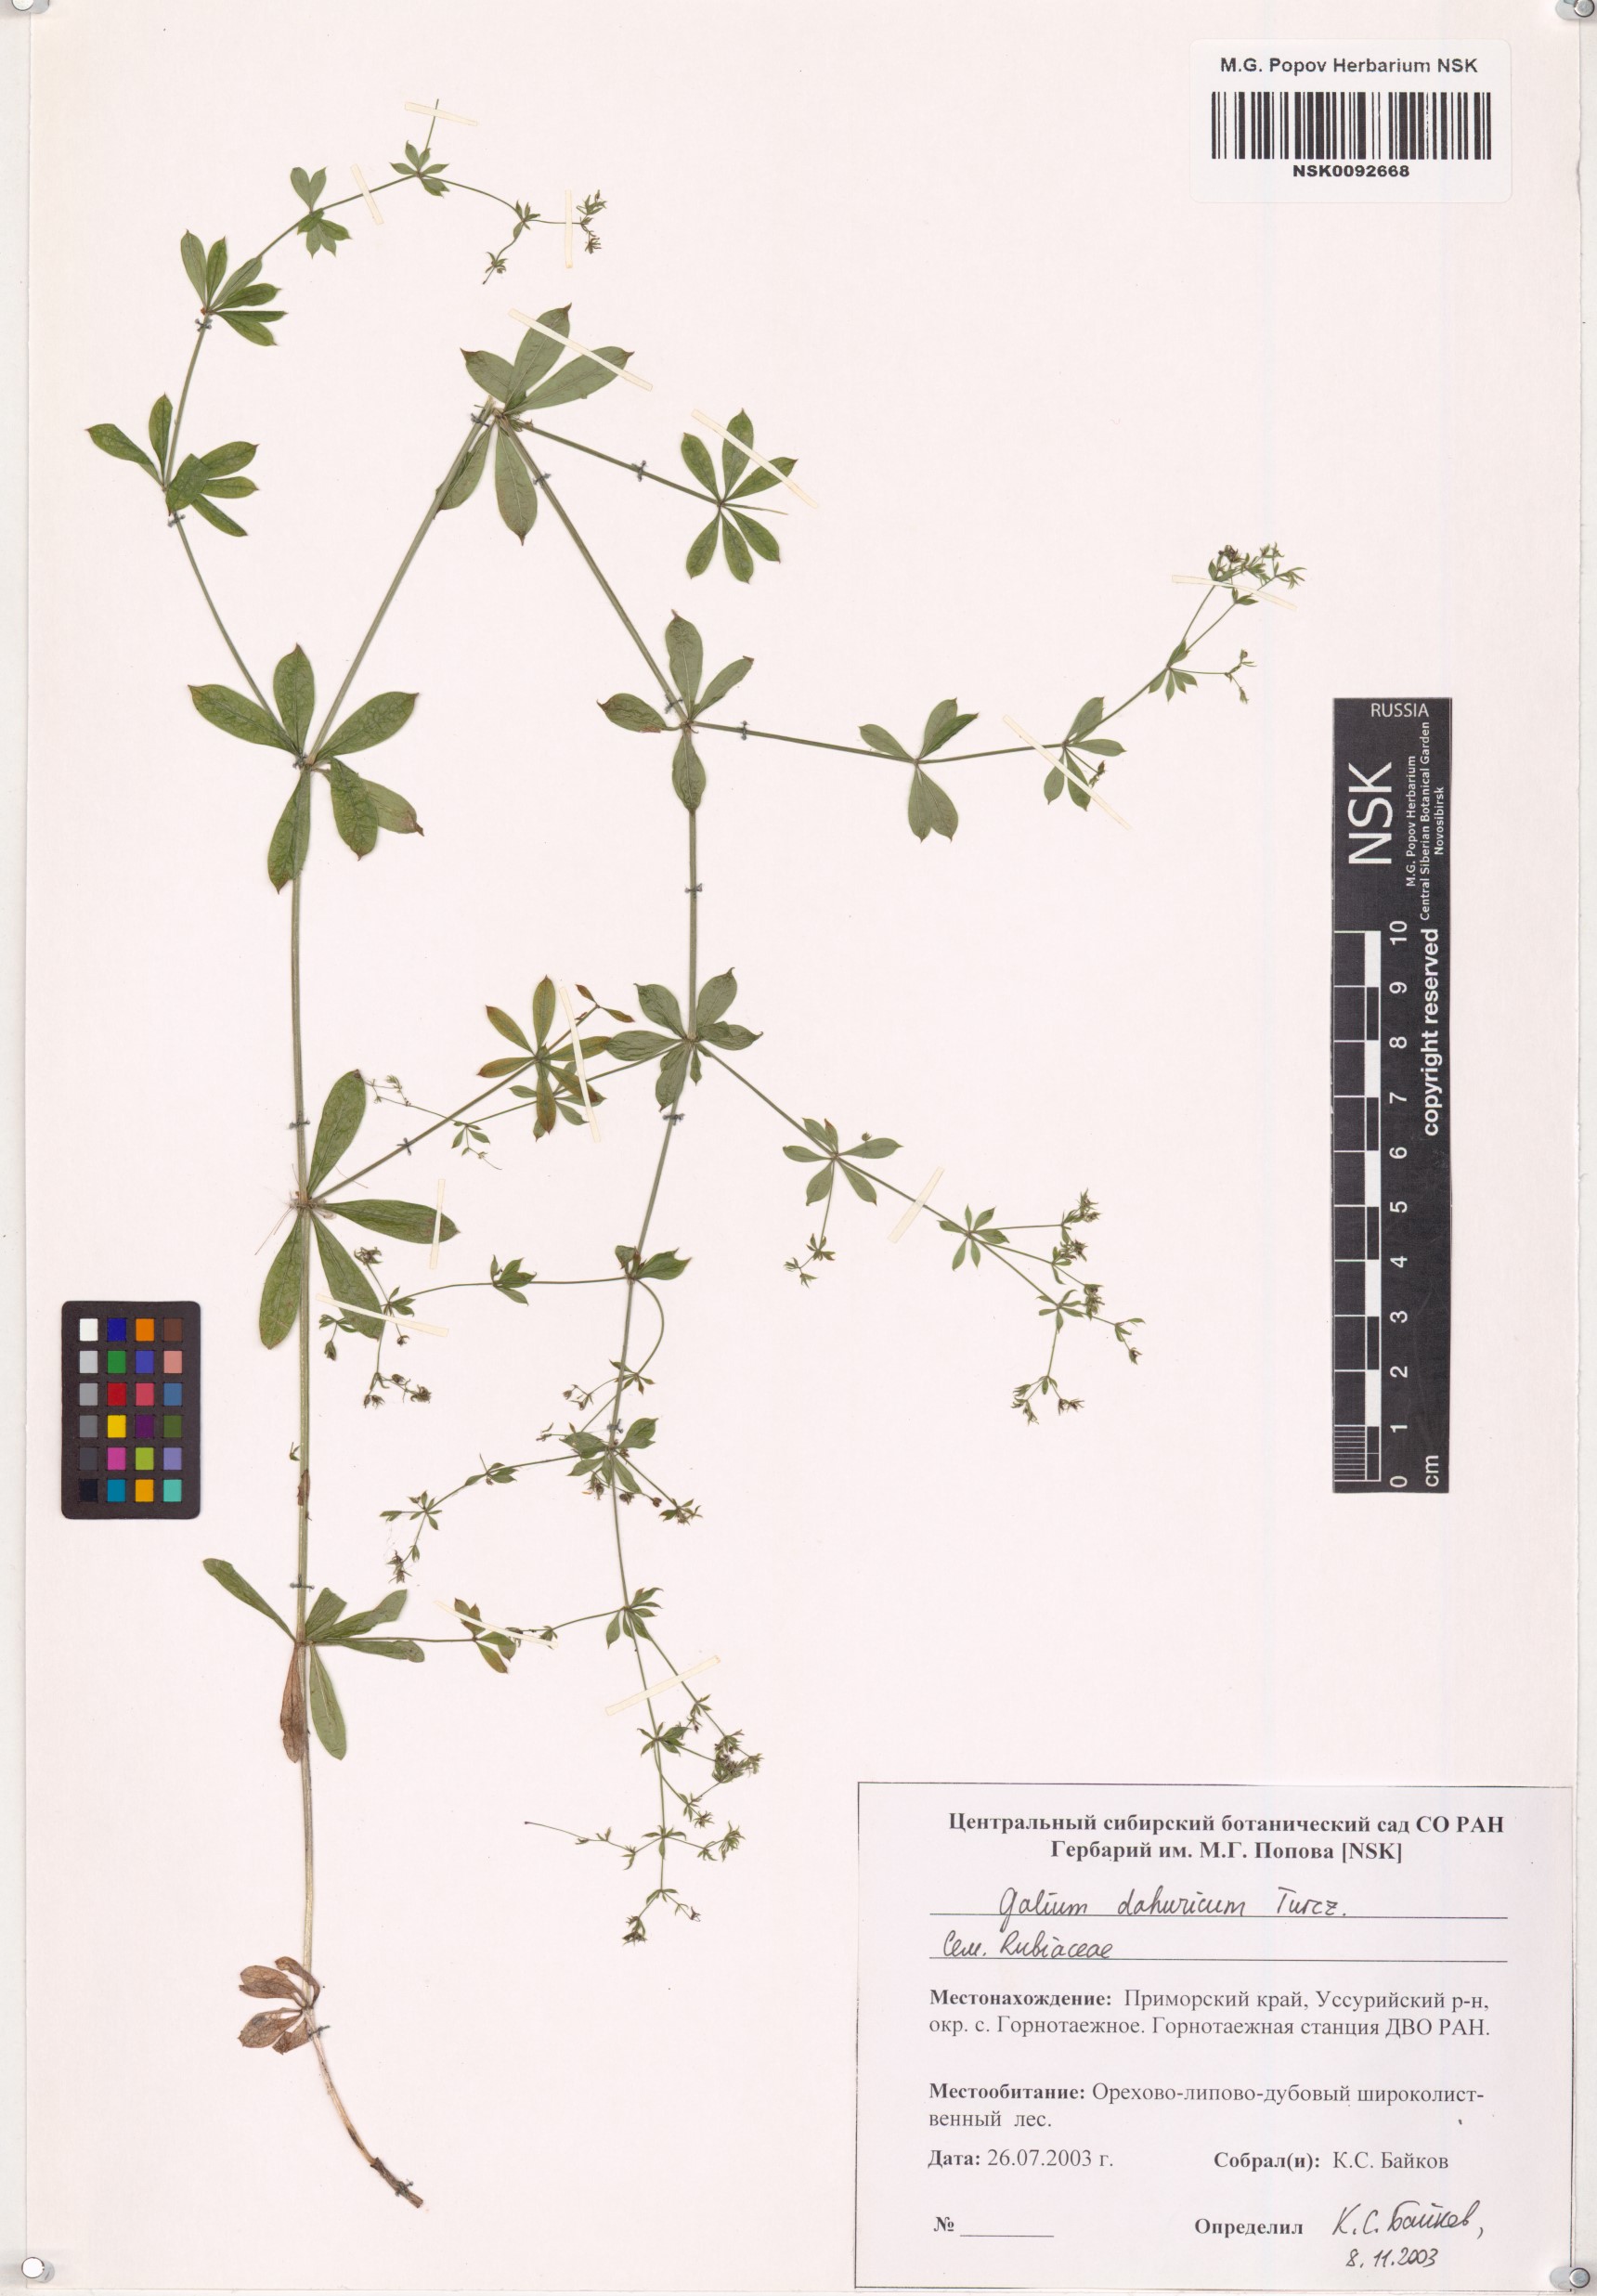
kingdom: Plantae
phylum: Tracheophyta
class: Magnoliopsida
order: Gentianales
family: Rubiaceae
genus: Galium
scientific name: Galium dahuricum
